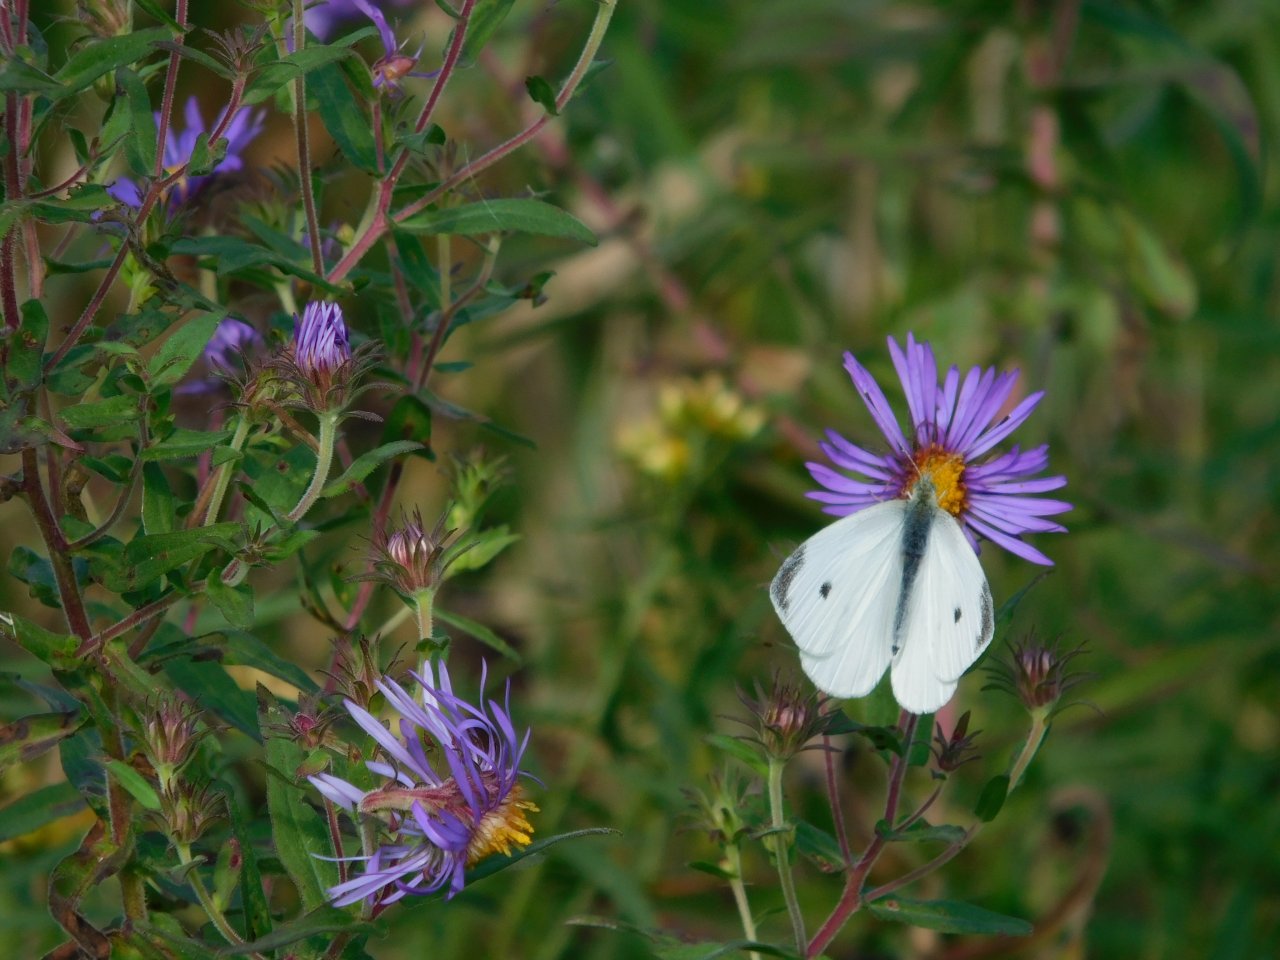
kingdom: Animalia
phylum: Arthropoda
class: Insecta
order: Lepidoptera
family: Pieridae
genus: Pieris
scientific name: Pieris rapae
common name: Cabbage White
